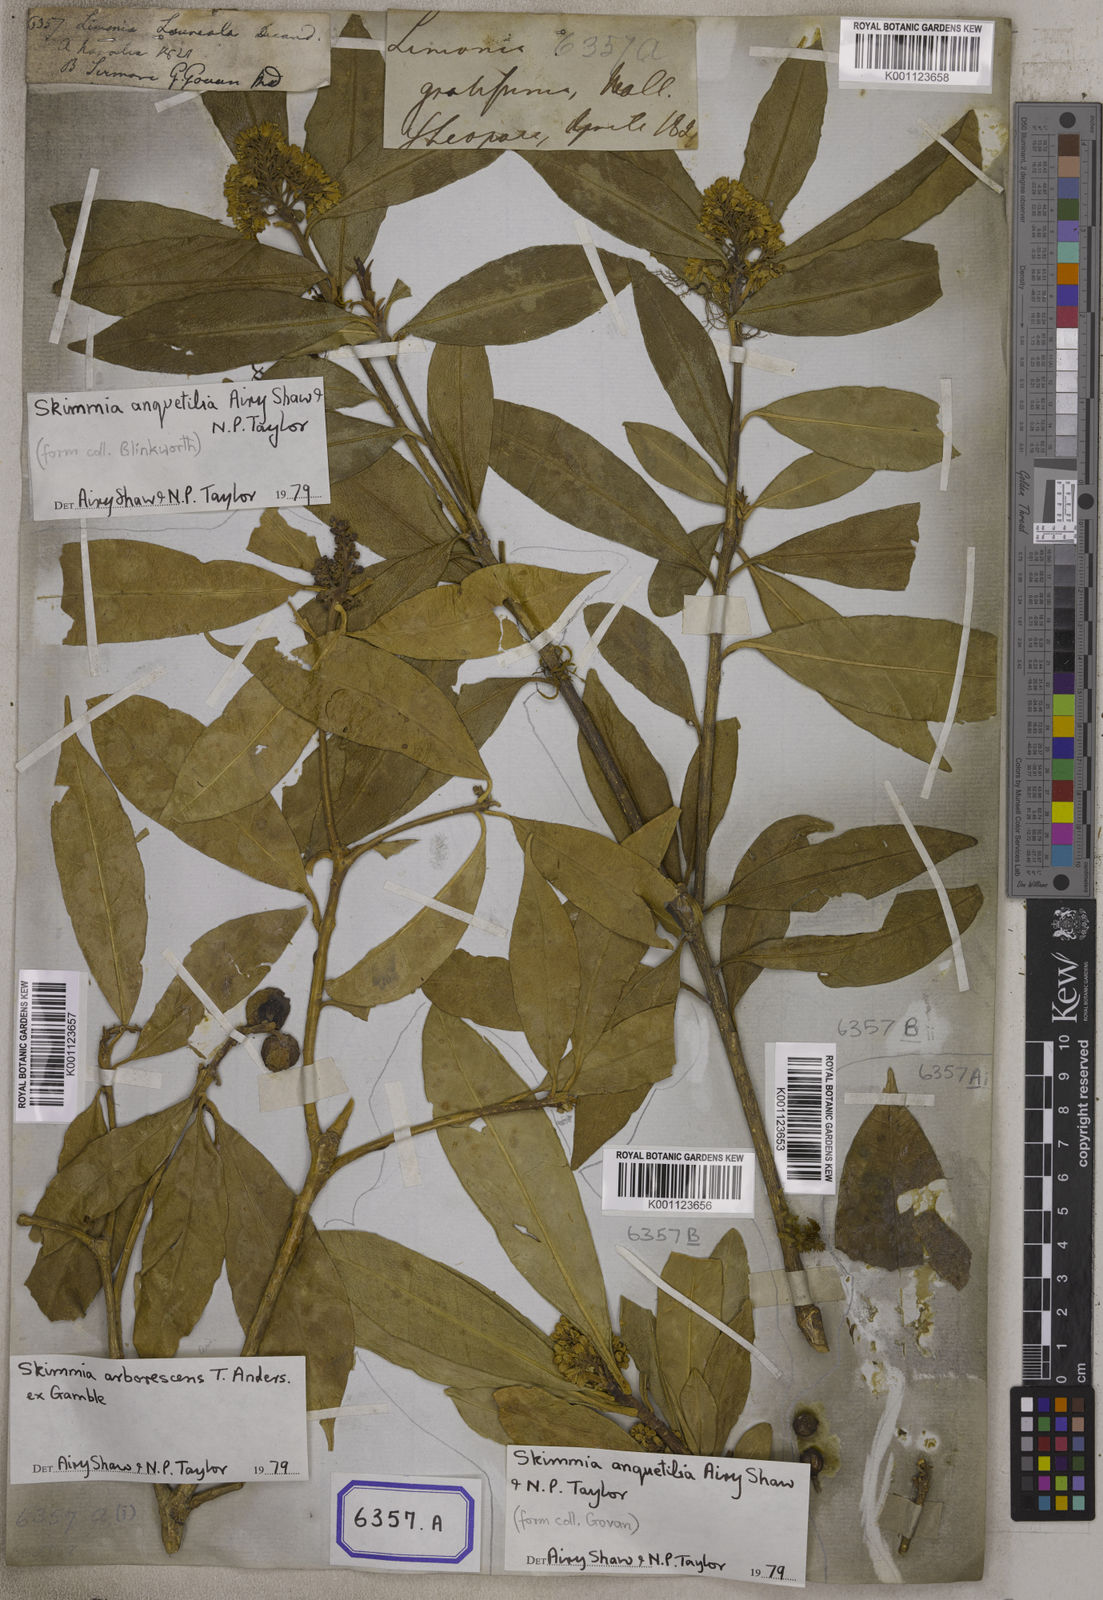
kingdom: Plantae
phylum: Tracheophyta
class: Magnoliopsida
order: Sapindales
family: Rutaceae
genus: Skimmia
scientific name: Skimmia laureola
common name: Ner
